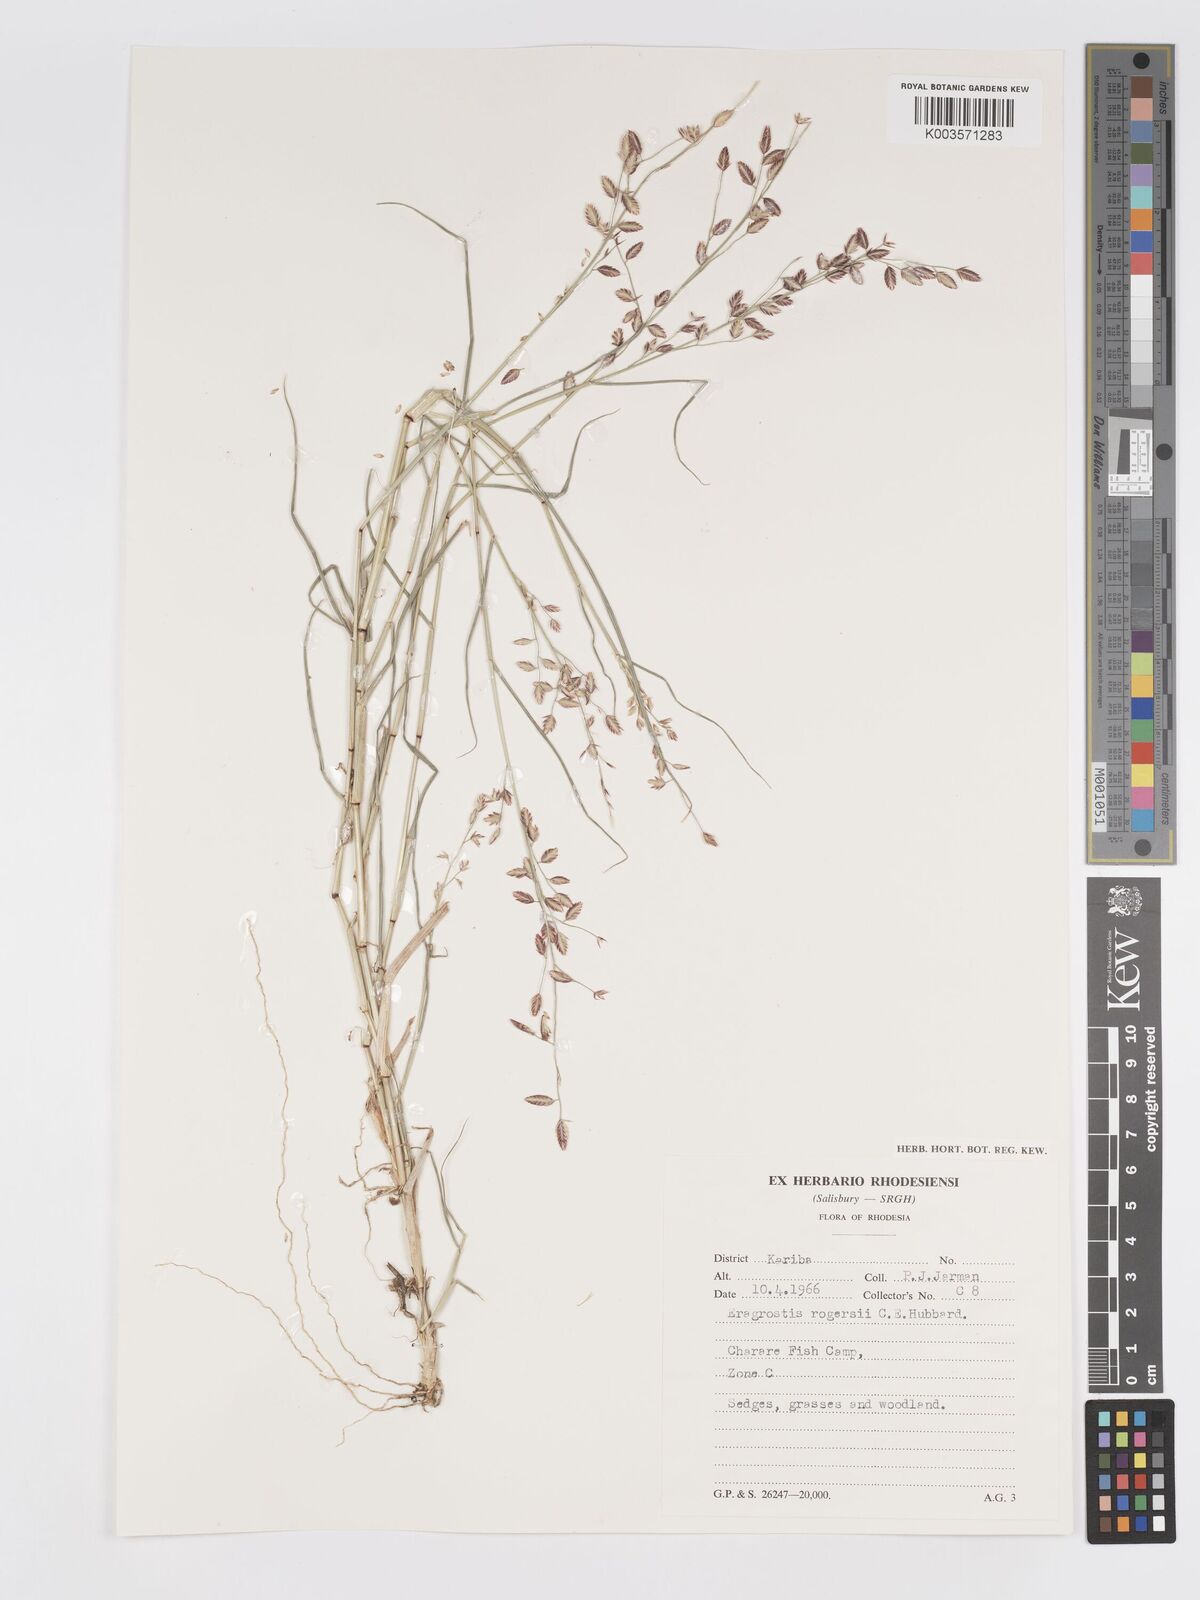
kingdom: Plantae
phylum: Tracheophyta
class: Liliopsida
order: Poales
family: Poaceae
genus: Eragrostis
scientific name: Eragrostis rogersii
